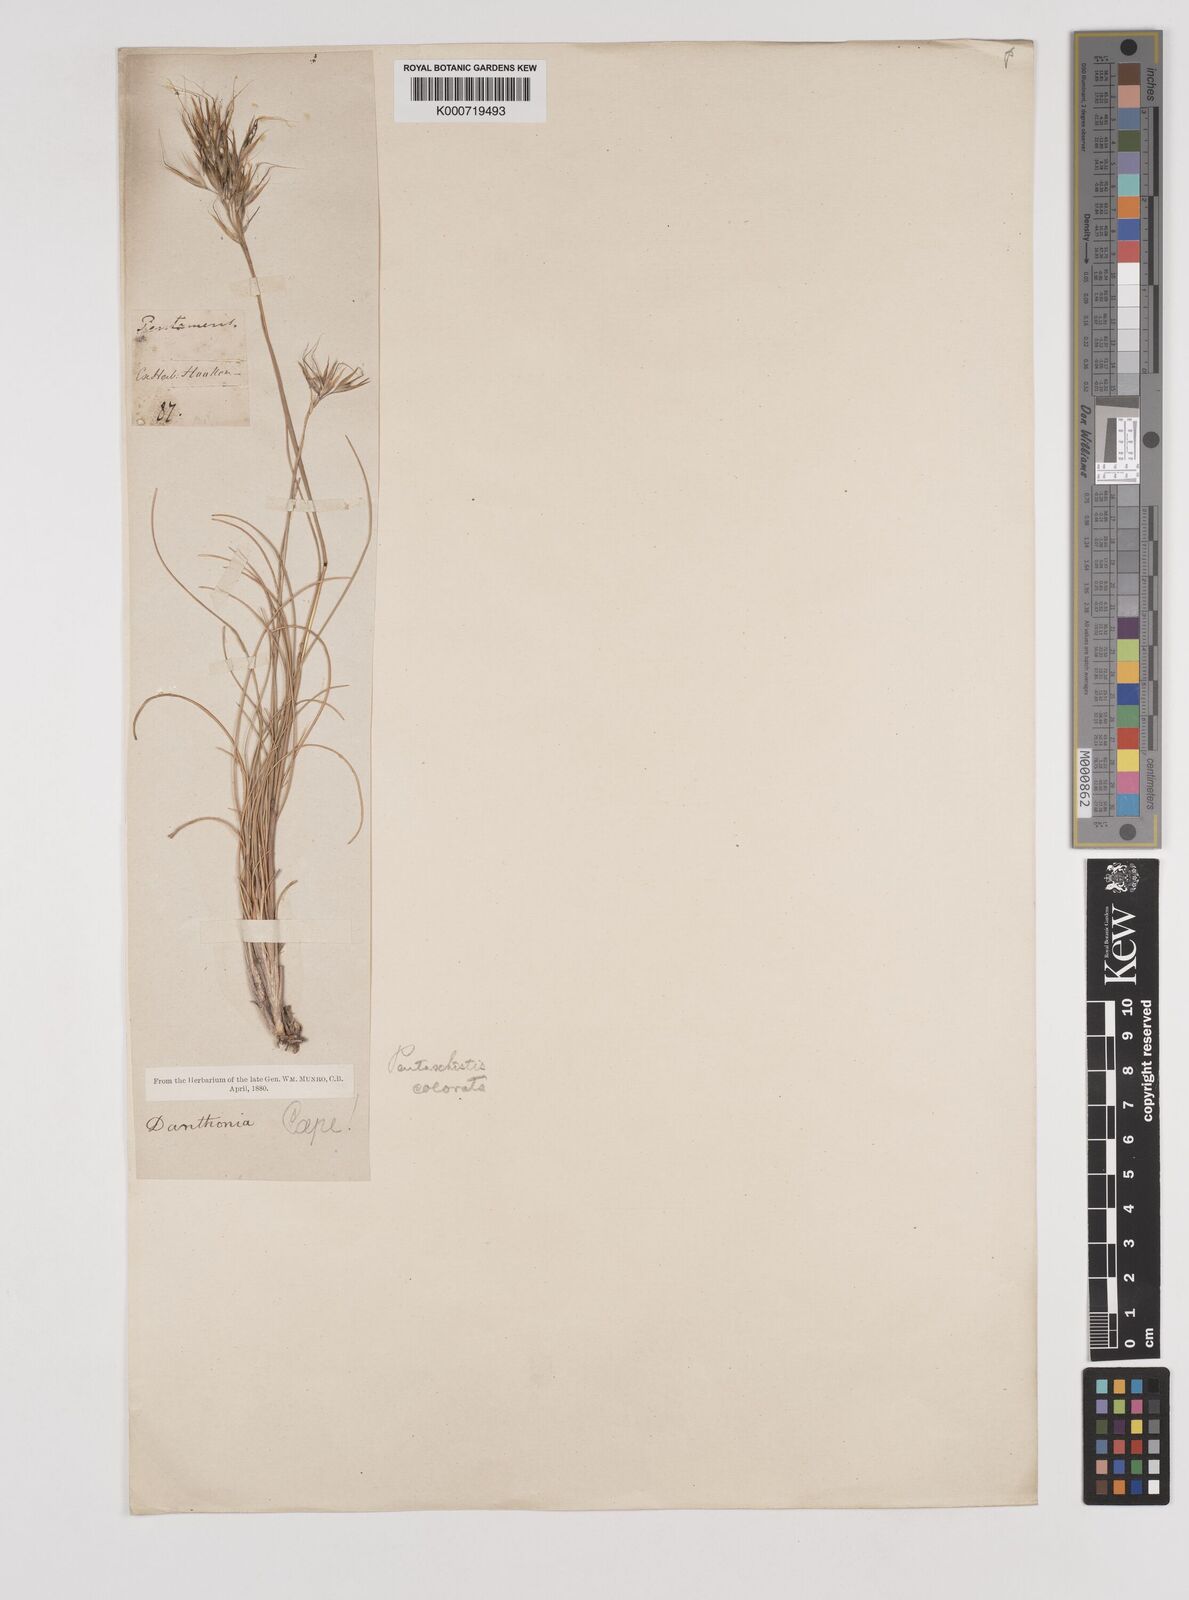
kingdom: Plantae
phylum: Tracheophyta
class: Liliopsida
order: Poales
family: Poaceae
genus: Pentameris
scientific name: Pentameris colorata
